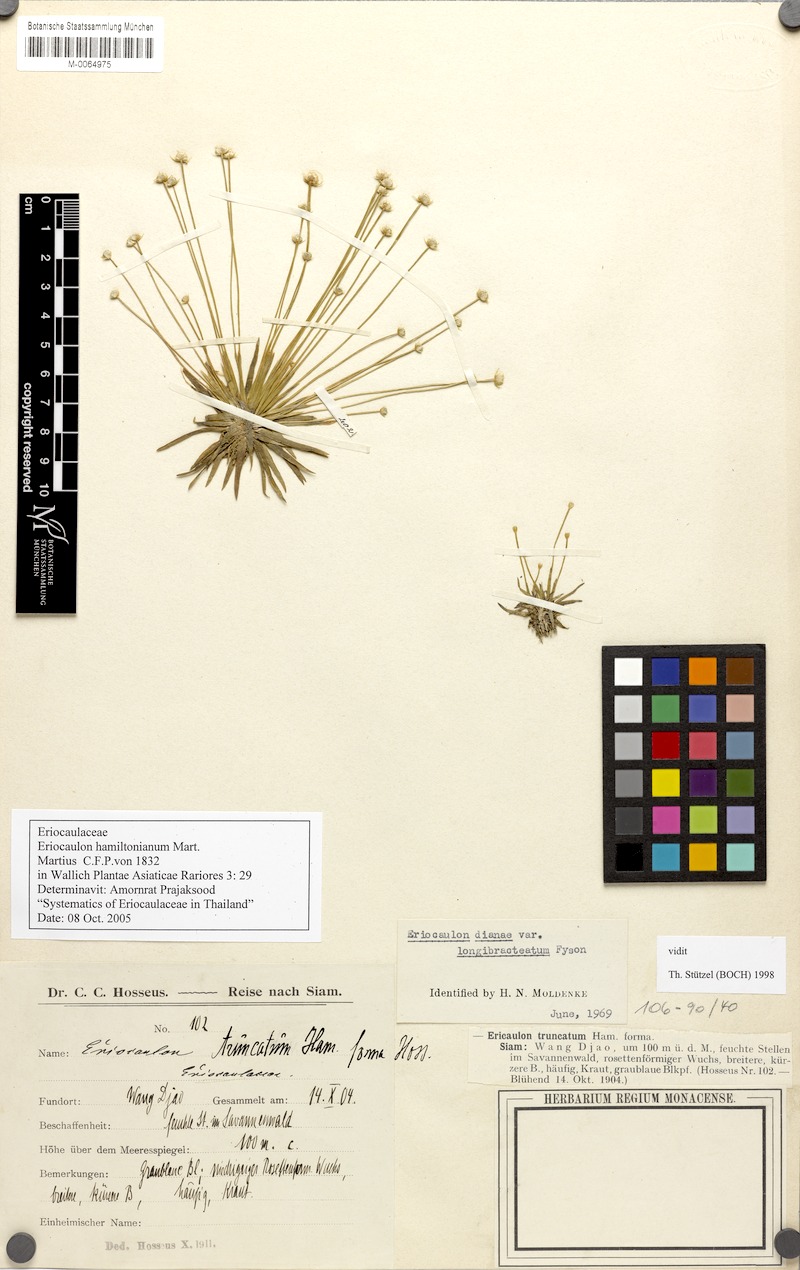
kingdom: Plantae
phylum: Tracheophyta
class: Liliopsida
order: Poales
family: Eriocaulaceae
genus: Eriocaulon
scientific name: Eriocaulon hamiltonianum
